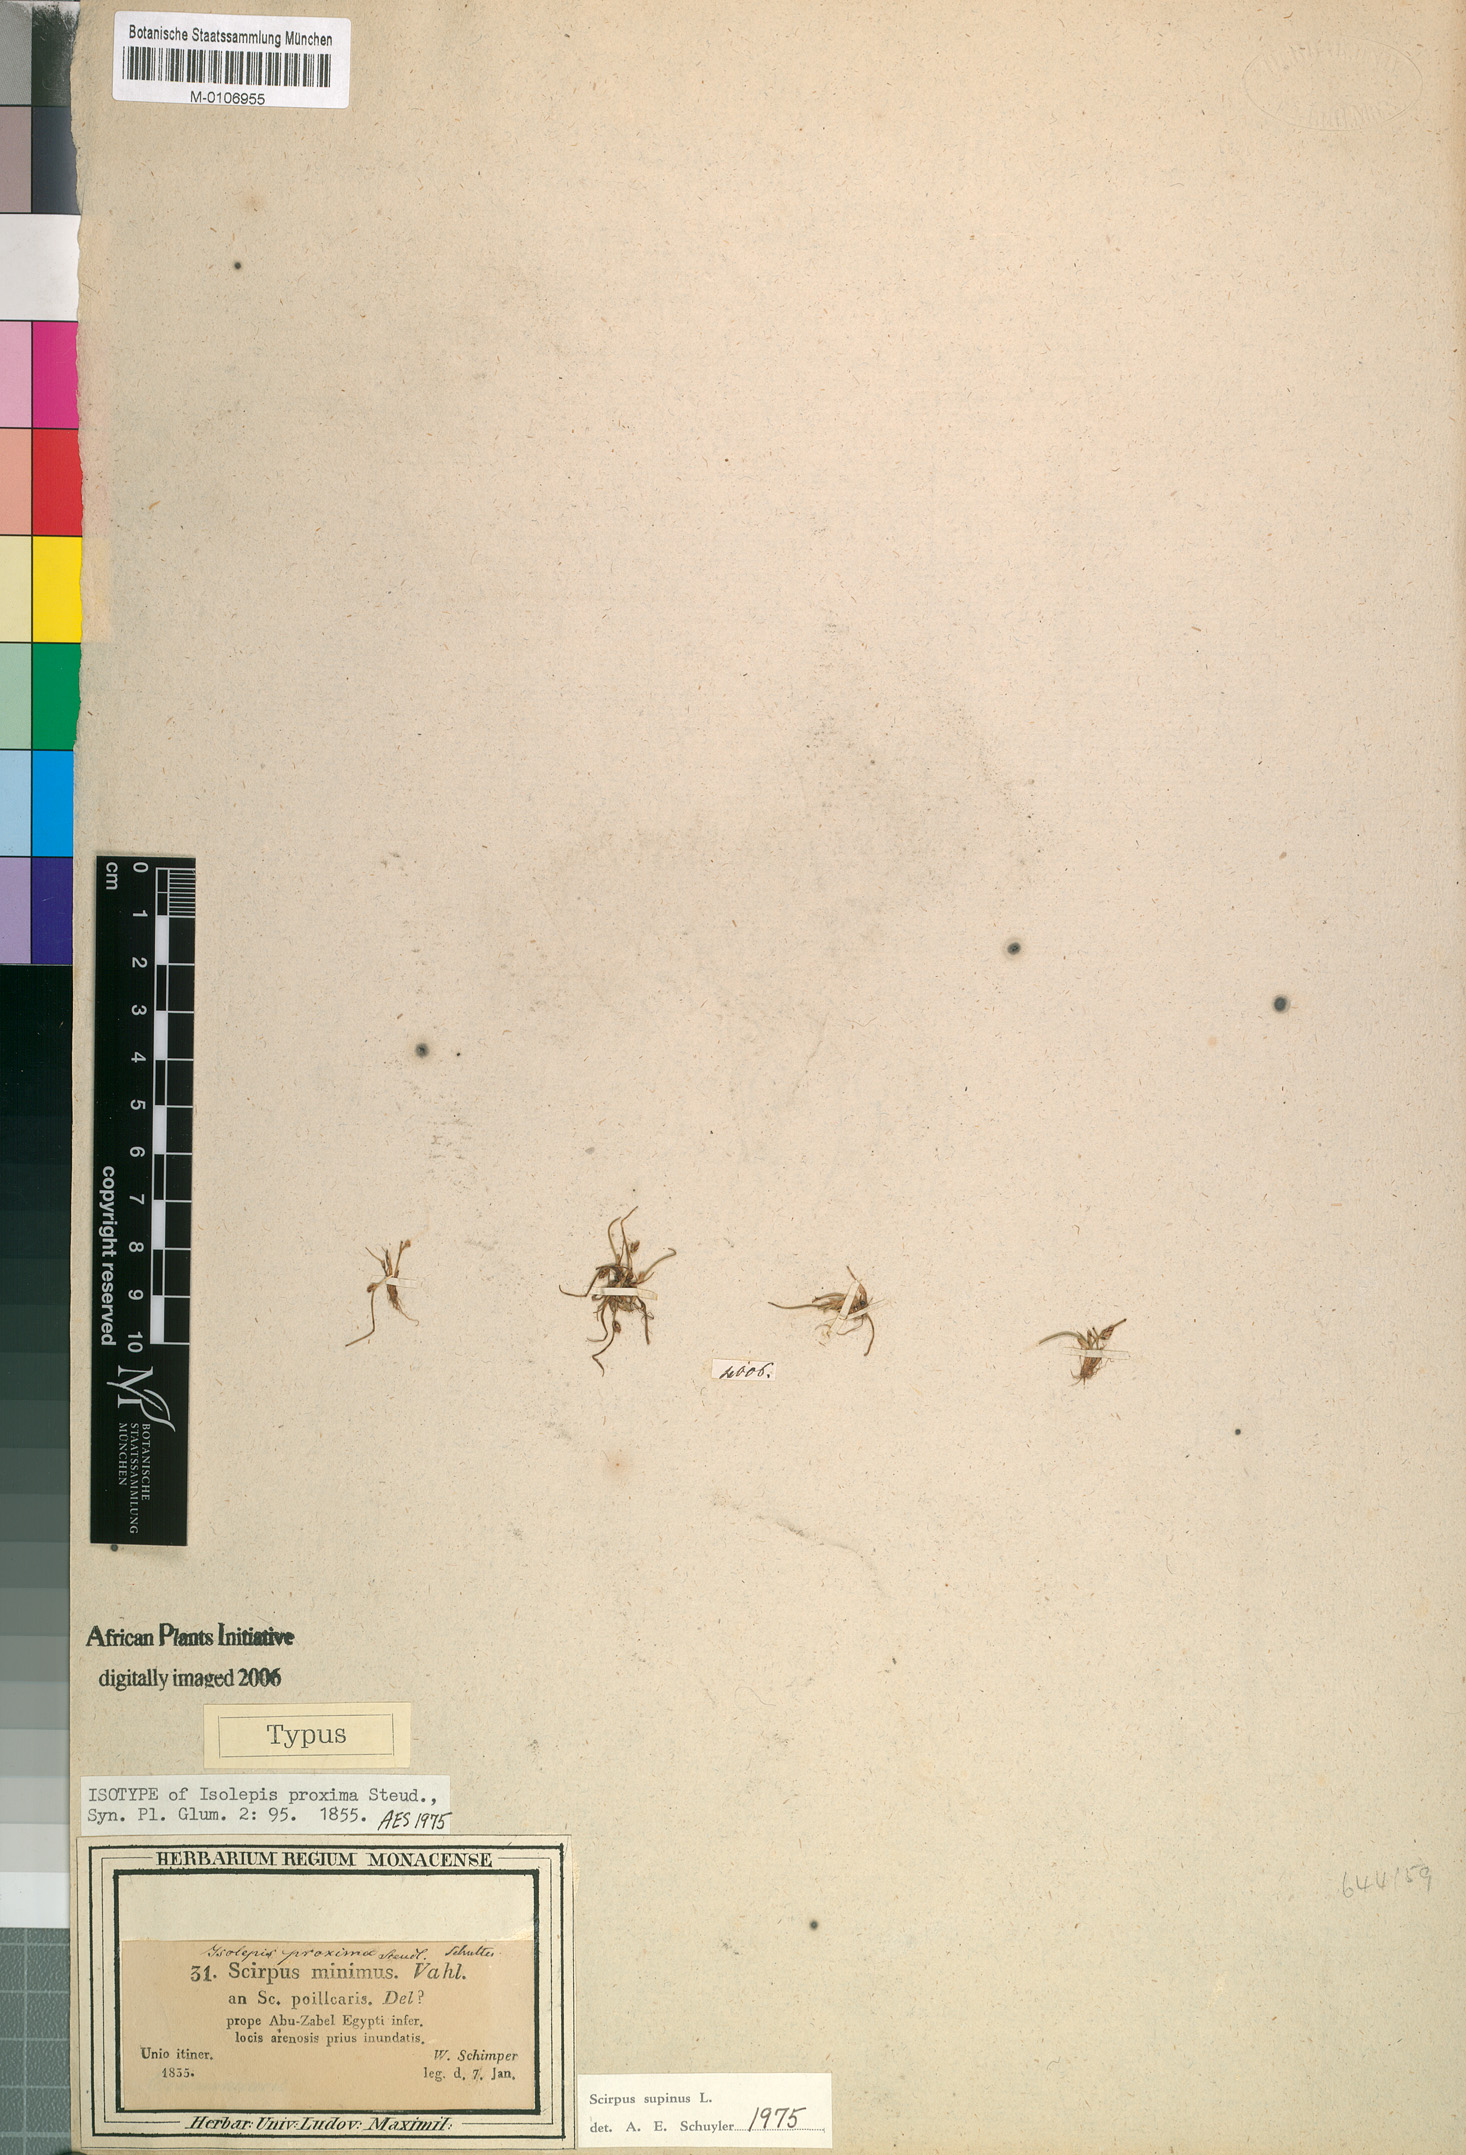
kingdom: Plantae
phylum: Tracheophyta
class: Liliopsida
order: Poales
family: Cyperaceae
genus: Schoenoplectiella
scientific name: Schoenoplectiella supina
